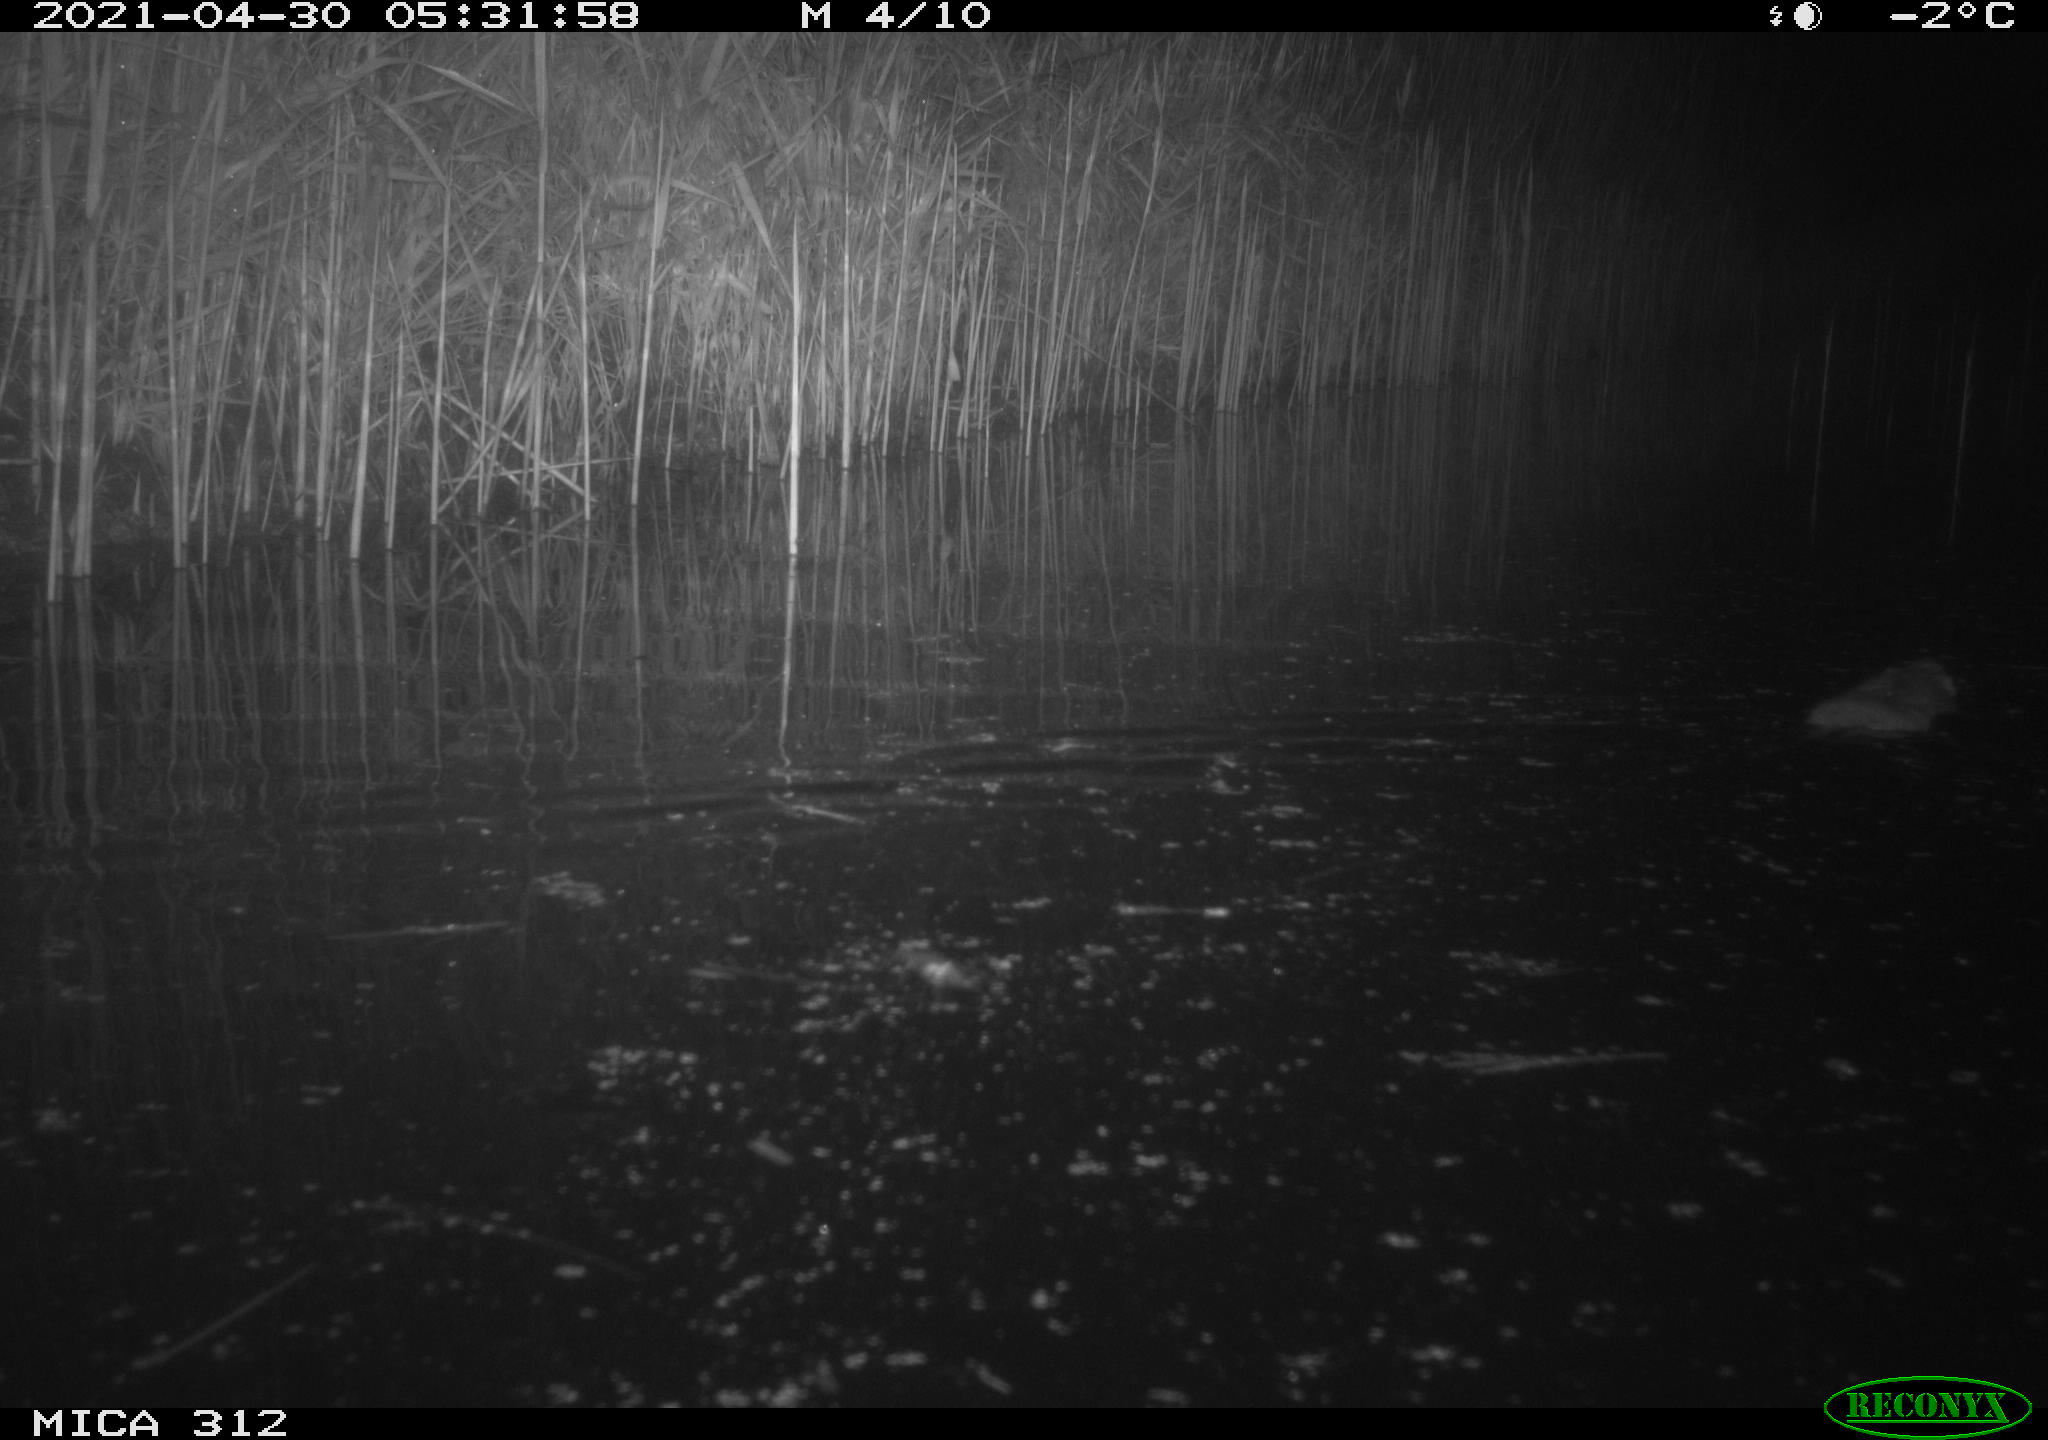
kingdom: Animalia
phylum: Chordata
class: Mammalia
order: Rodentia
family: Muridae
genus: Rattus
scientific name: Rattus norvegicus
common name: Brown rat
